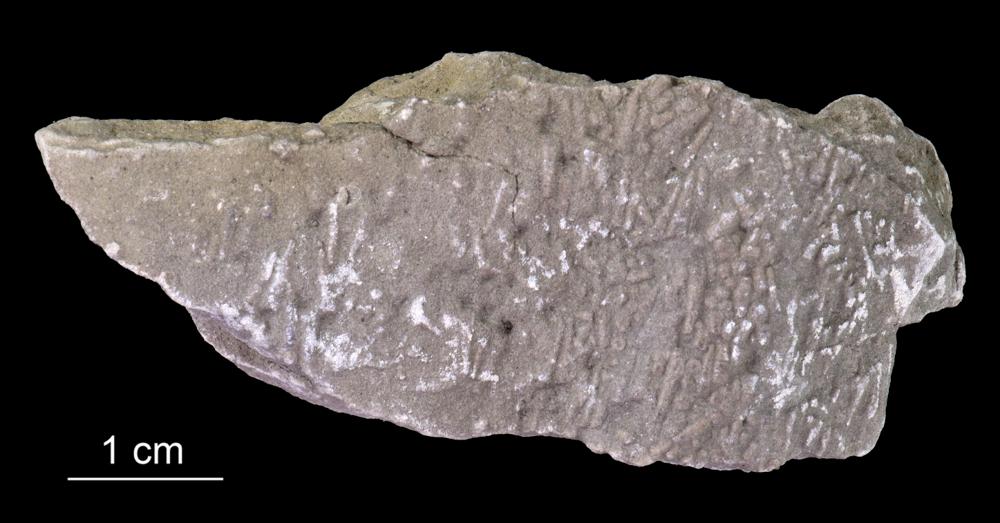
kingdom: Animalia
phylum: Annelida
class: Polychaeta
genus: Volborthella
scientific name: Volborthella tenuis
